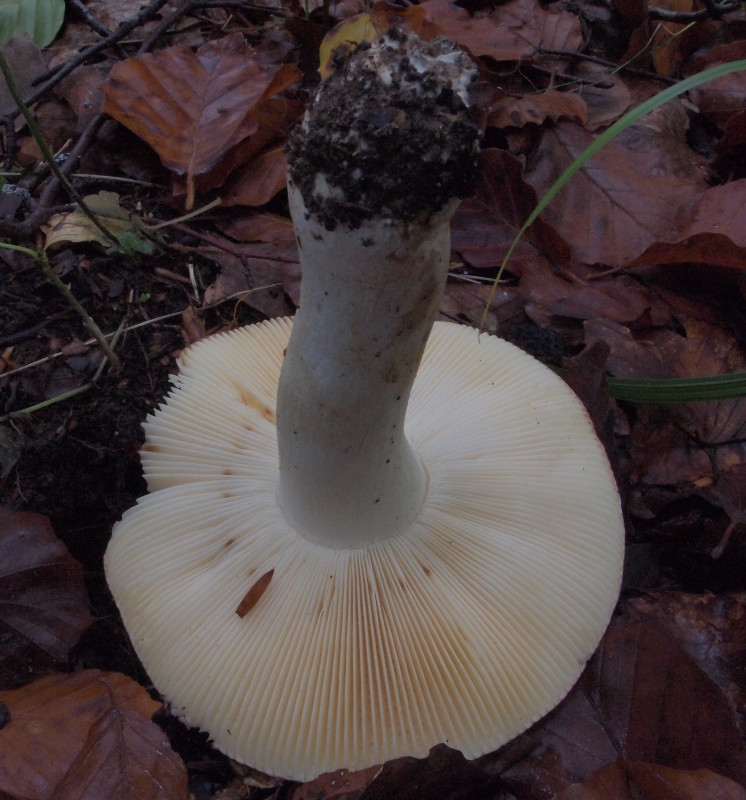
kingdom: Fungi
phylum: Basidiomycota
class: Agaricomycetes
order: Russulales
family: Russulaceae
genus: Russula
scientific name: Russula faginea
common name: bøge-skørhat
